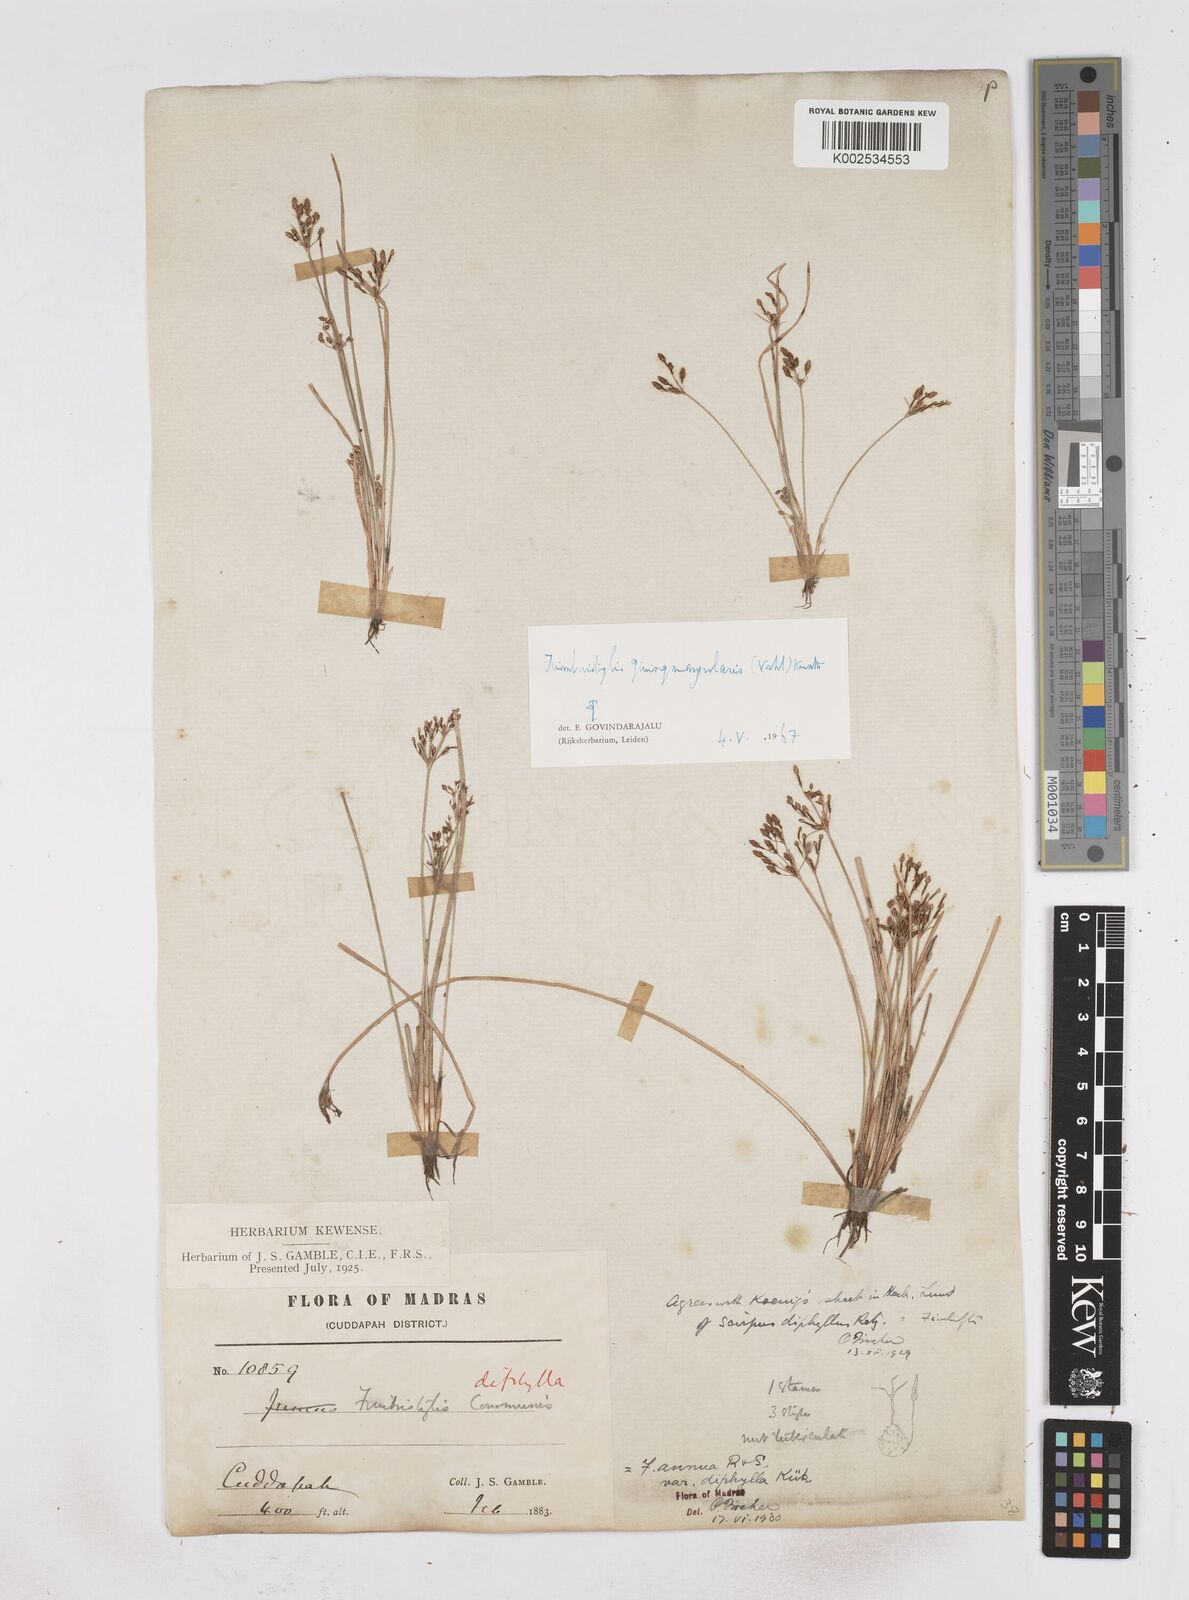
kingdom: Plantae
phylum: Tracheophyta
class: Liliopsida
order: Poales
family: Cyperaceae
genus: Fimbristylis
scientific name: Fimbristylis quinquangularis
